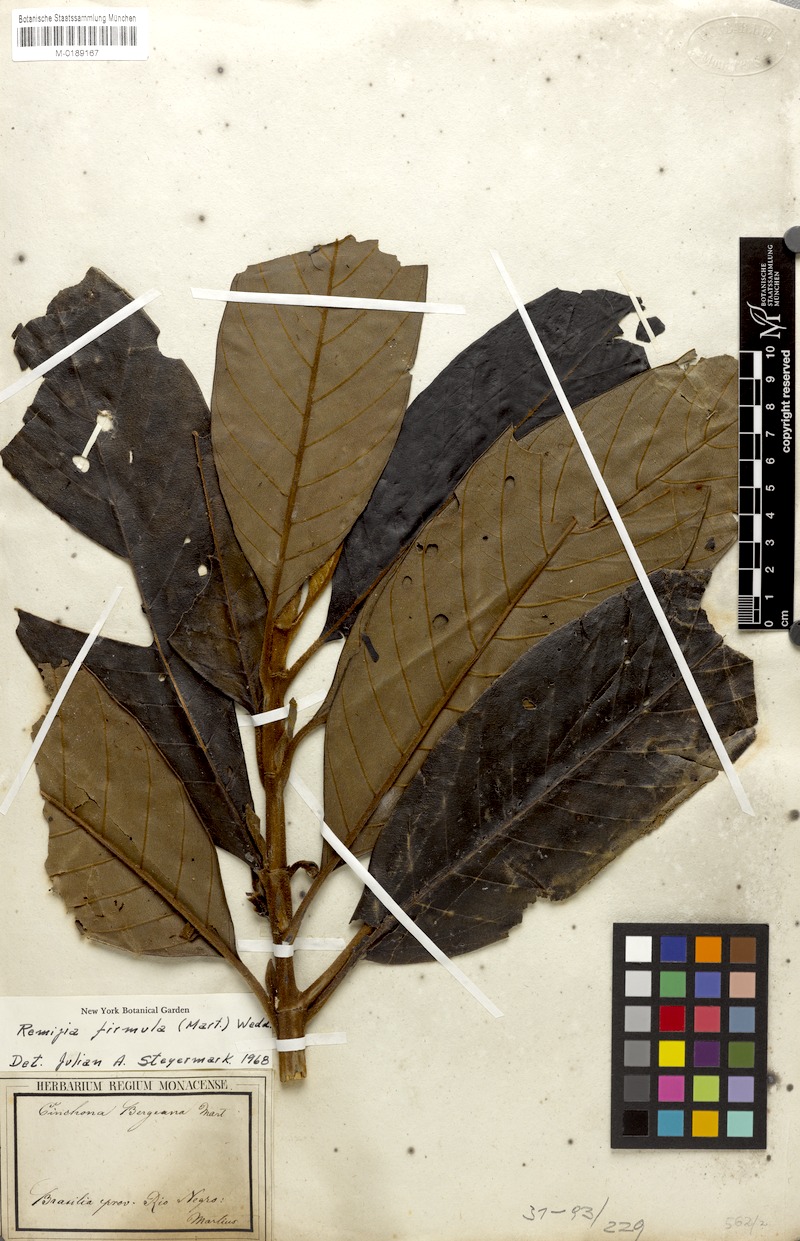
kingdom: Plantae
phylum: Tracheophyta
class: Magnoliopsida
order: Gentianales
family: Rubiaceae
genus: Remijia
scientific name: Remijia firmula
